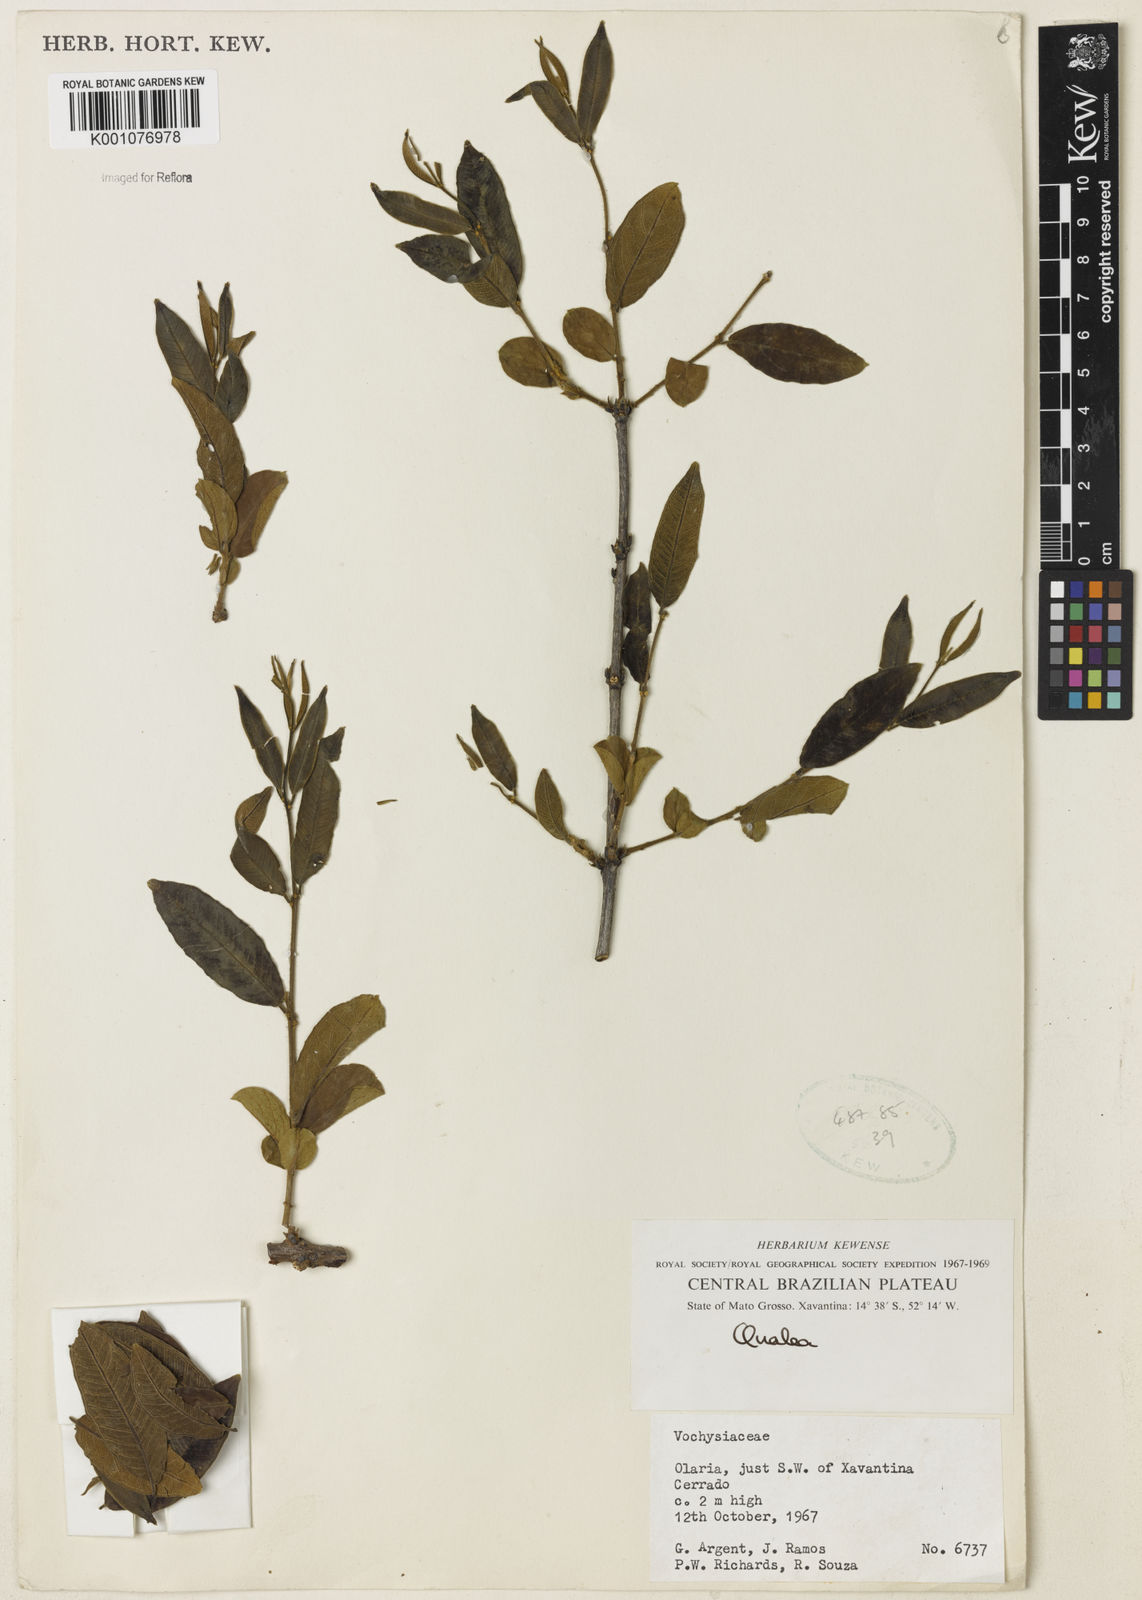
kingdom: Plantae
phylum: Tracheophyta
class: Magnoliopsida
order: Myrtales
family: Vochysiaceae
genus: Qualea
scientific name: Qualea
